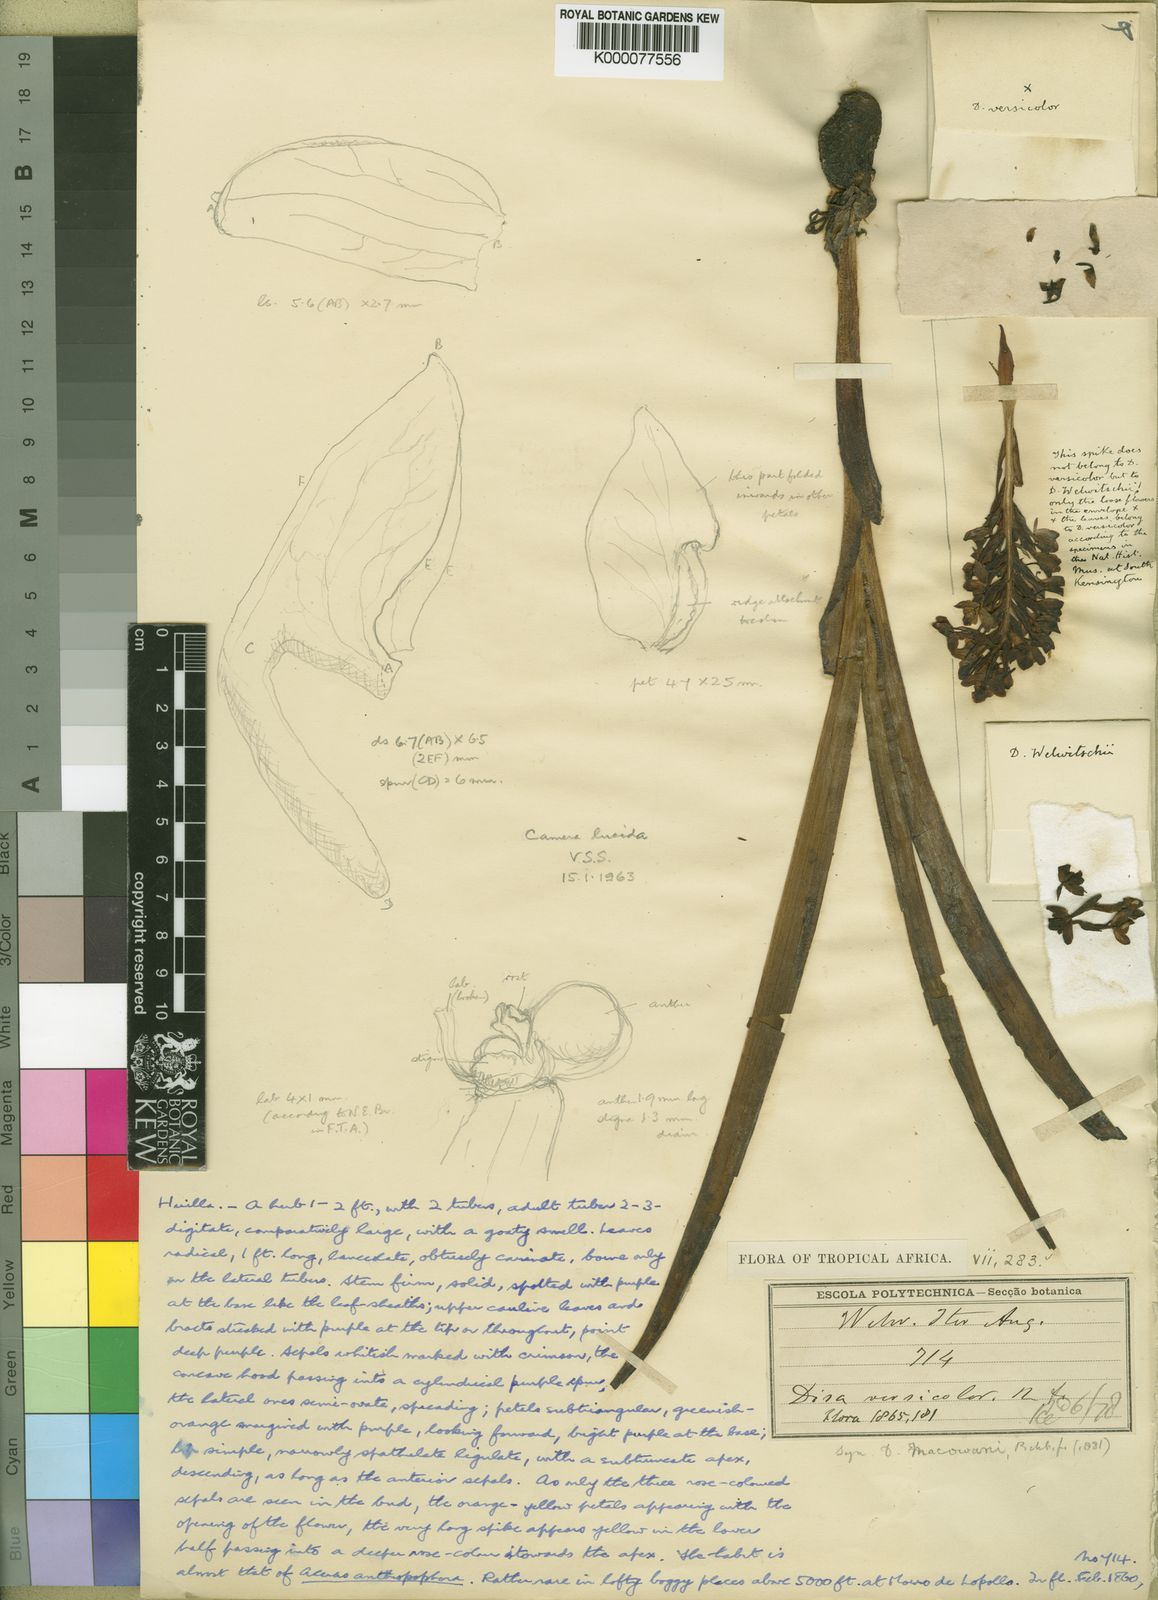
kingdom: Plantae
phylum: Tracheophyta
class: Liliopsida
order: Asparagales
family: Orchidaceae
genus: Disa
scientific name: Disa versicolor
